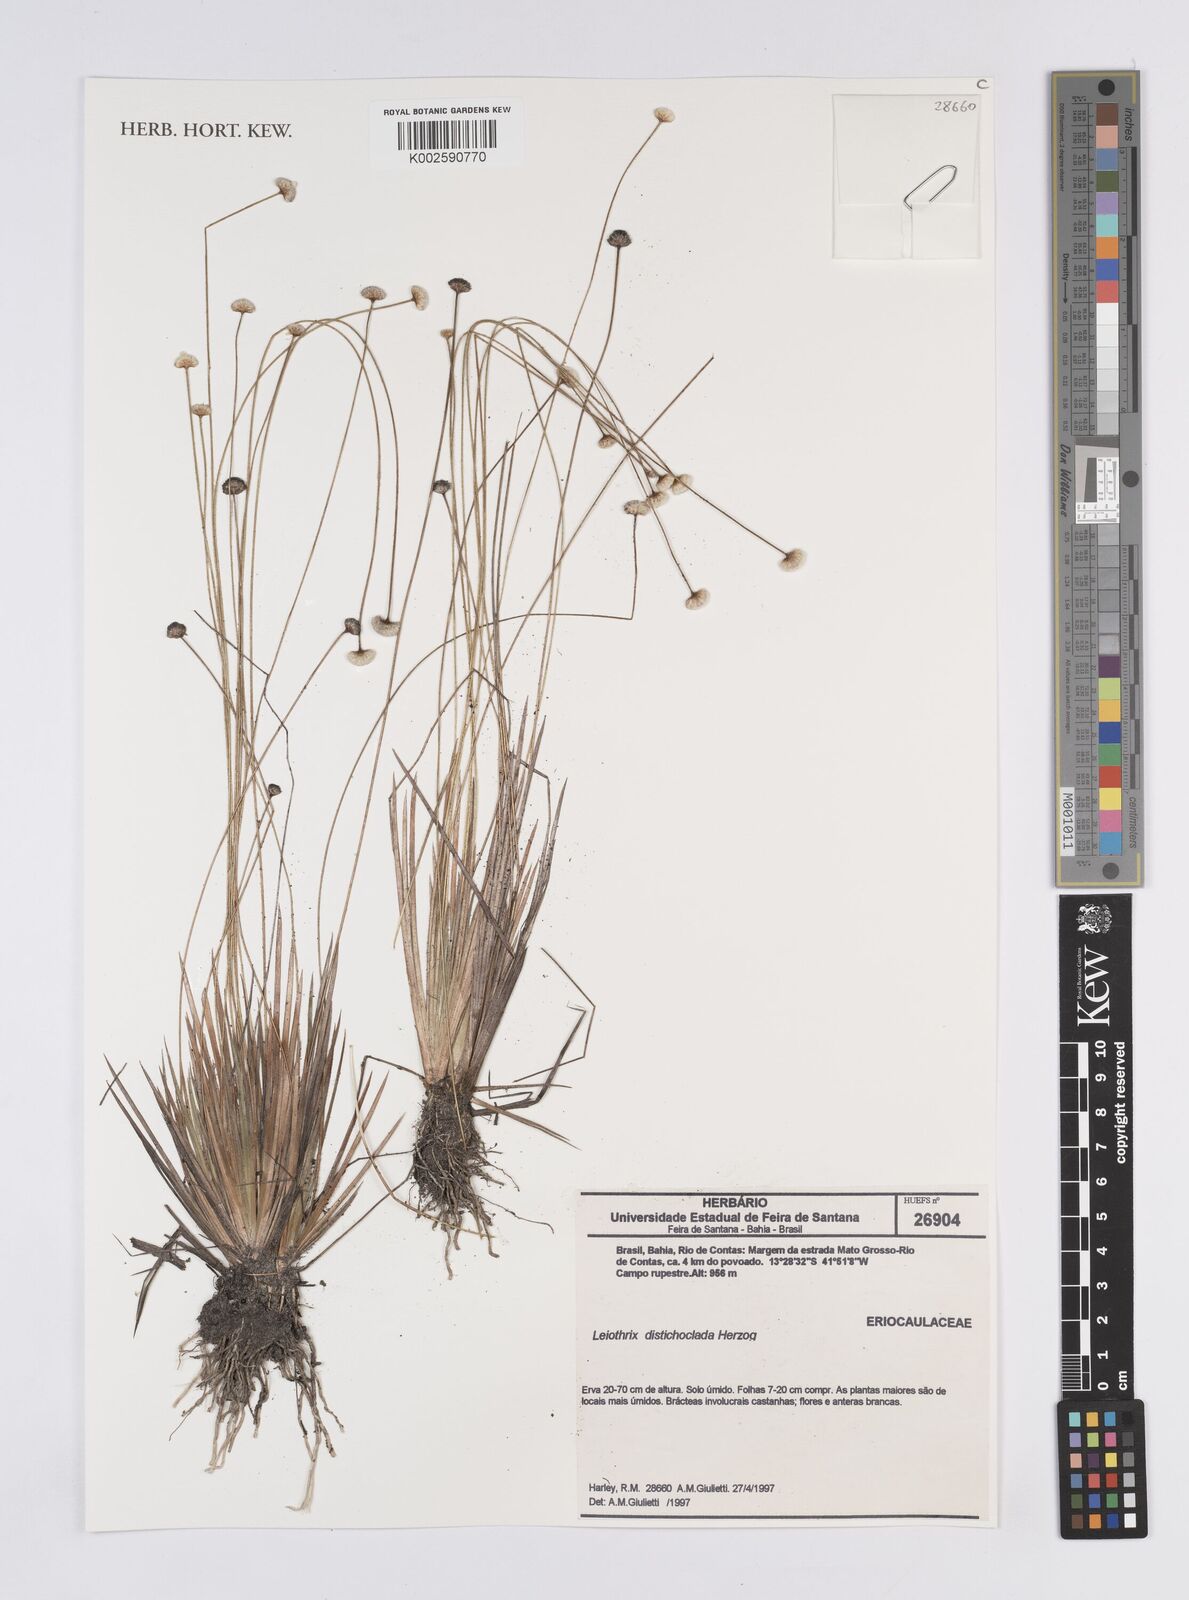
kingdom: Plantae
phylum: Tracheophyta
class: Liliopsida
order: Poales
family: Eriocaulaceae
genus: Leiothrix
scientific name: Leiothrix distichoclada
